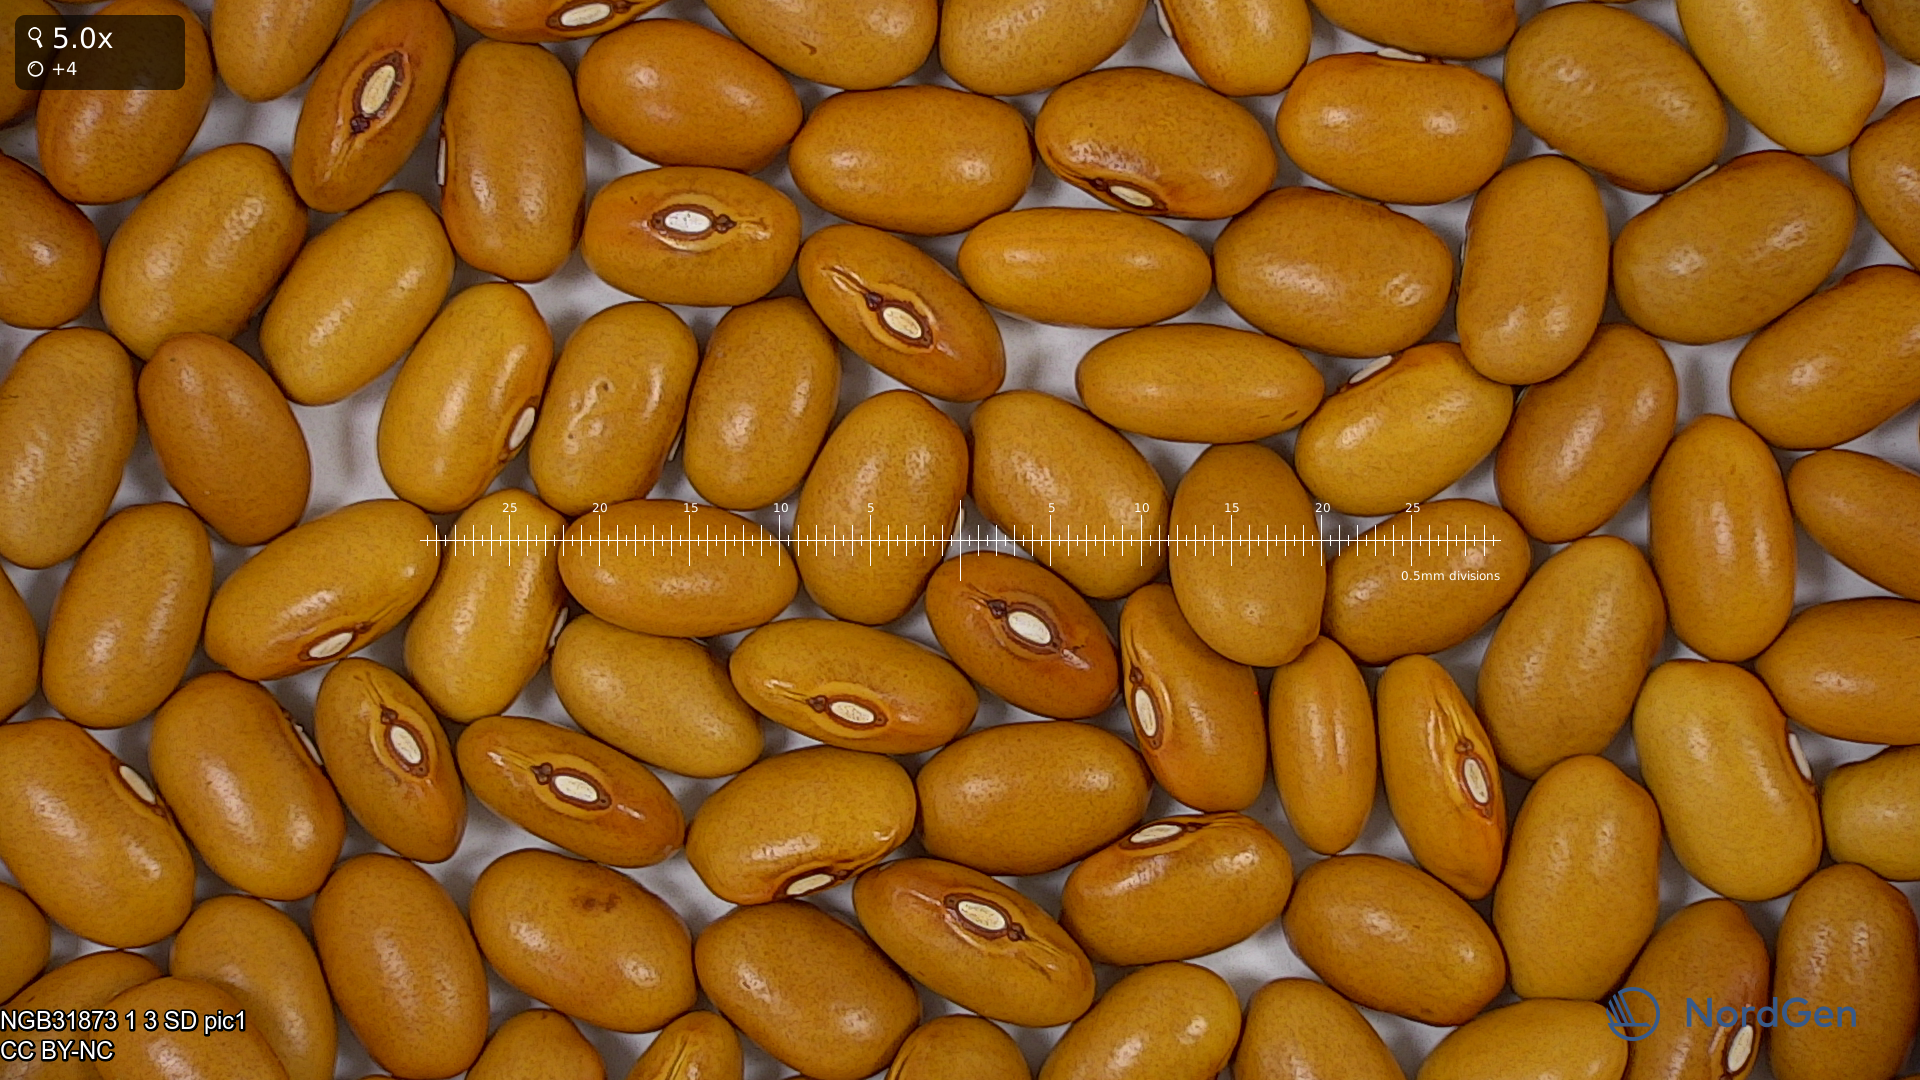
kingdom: Plantae
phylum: Tracheophyta
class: Magnoliopsida
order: Fabales
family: Fabaceae
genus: Phaseolus
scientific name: Phaseolus vulgaris
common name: Bean
